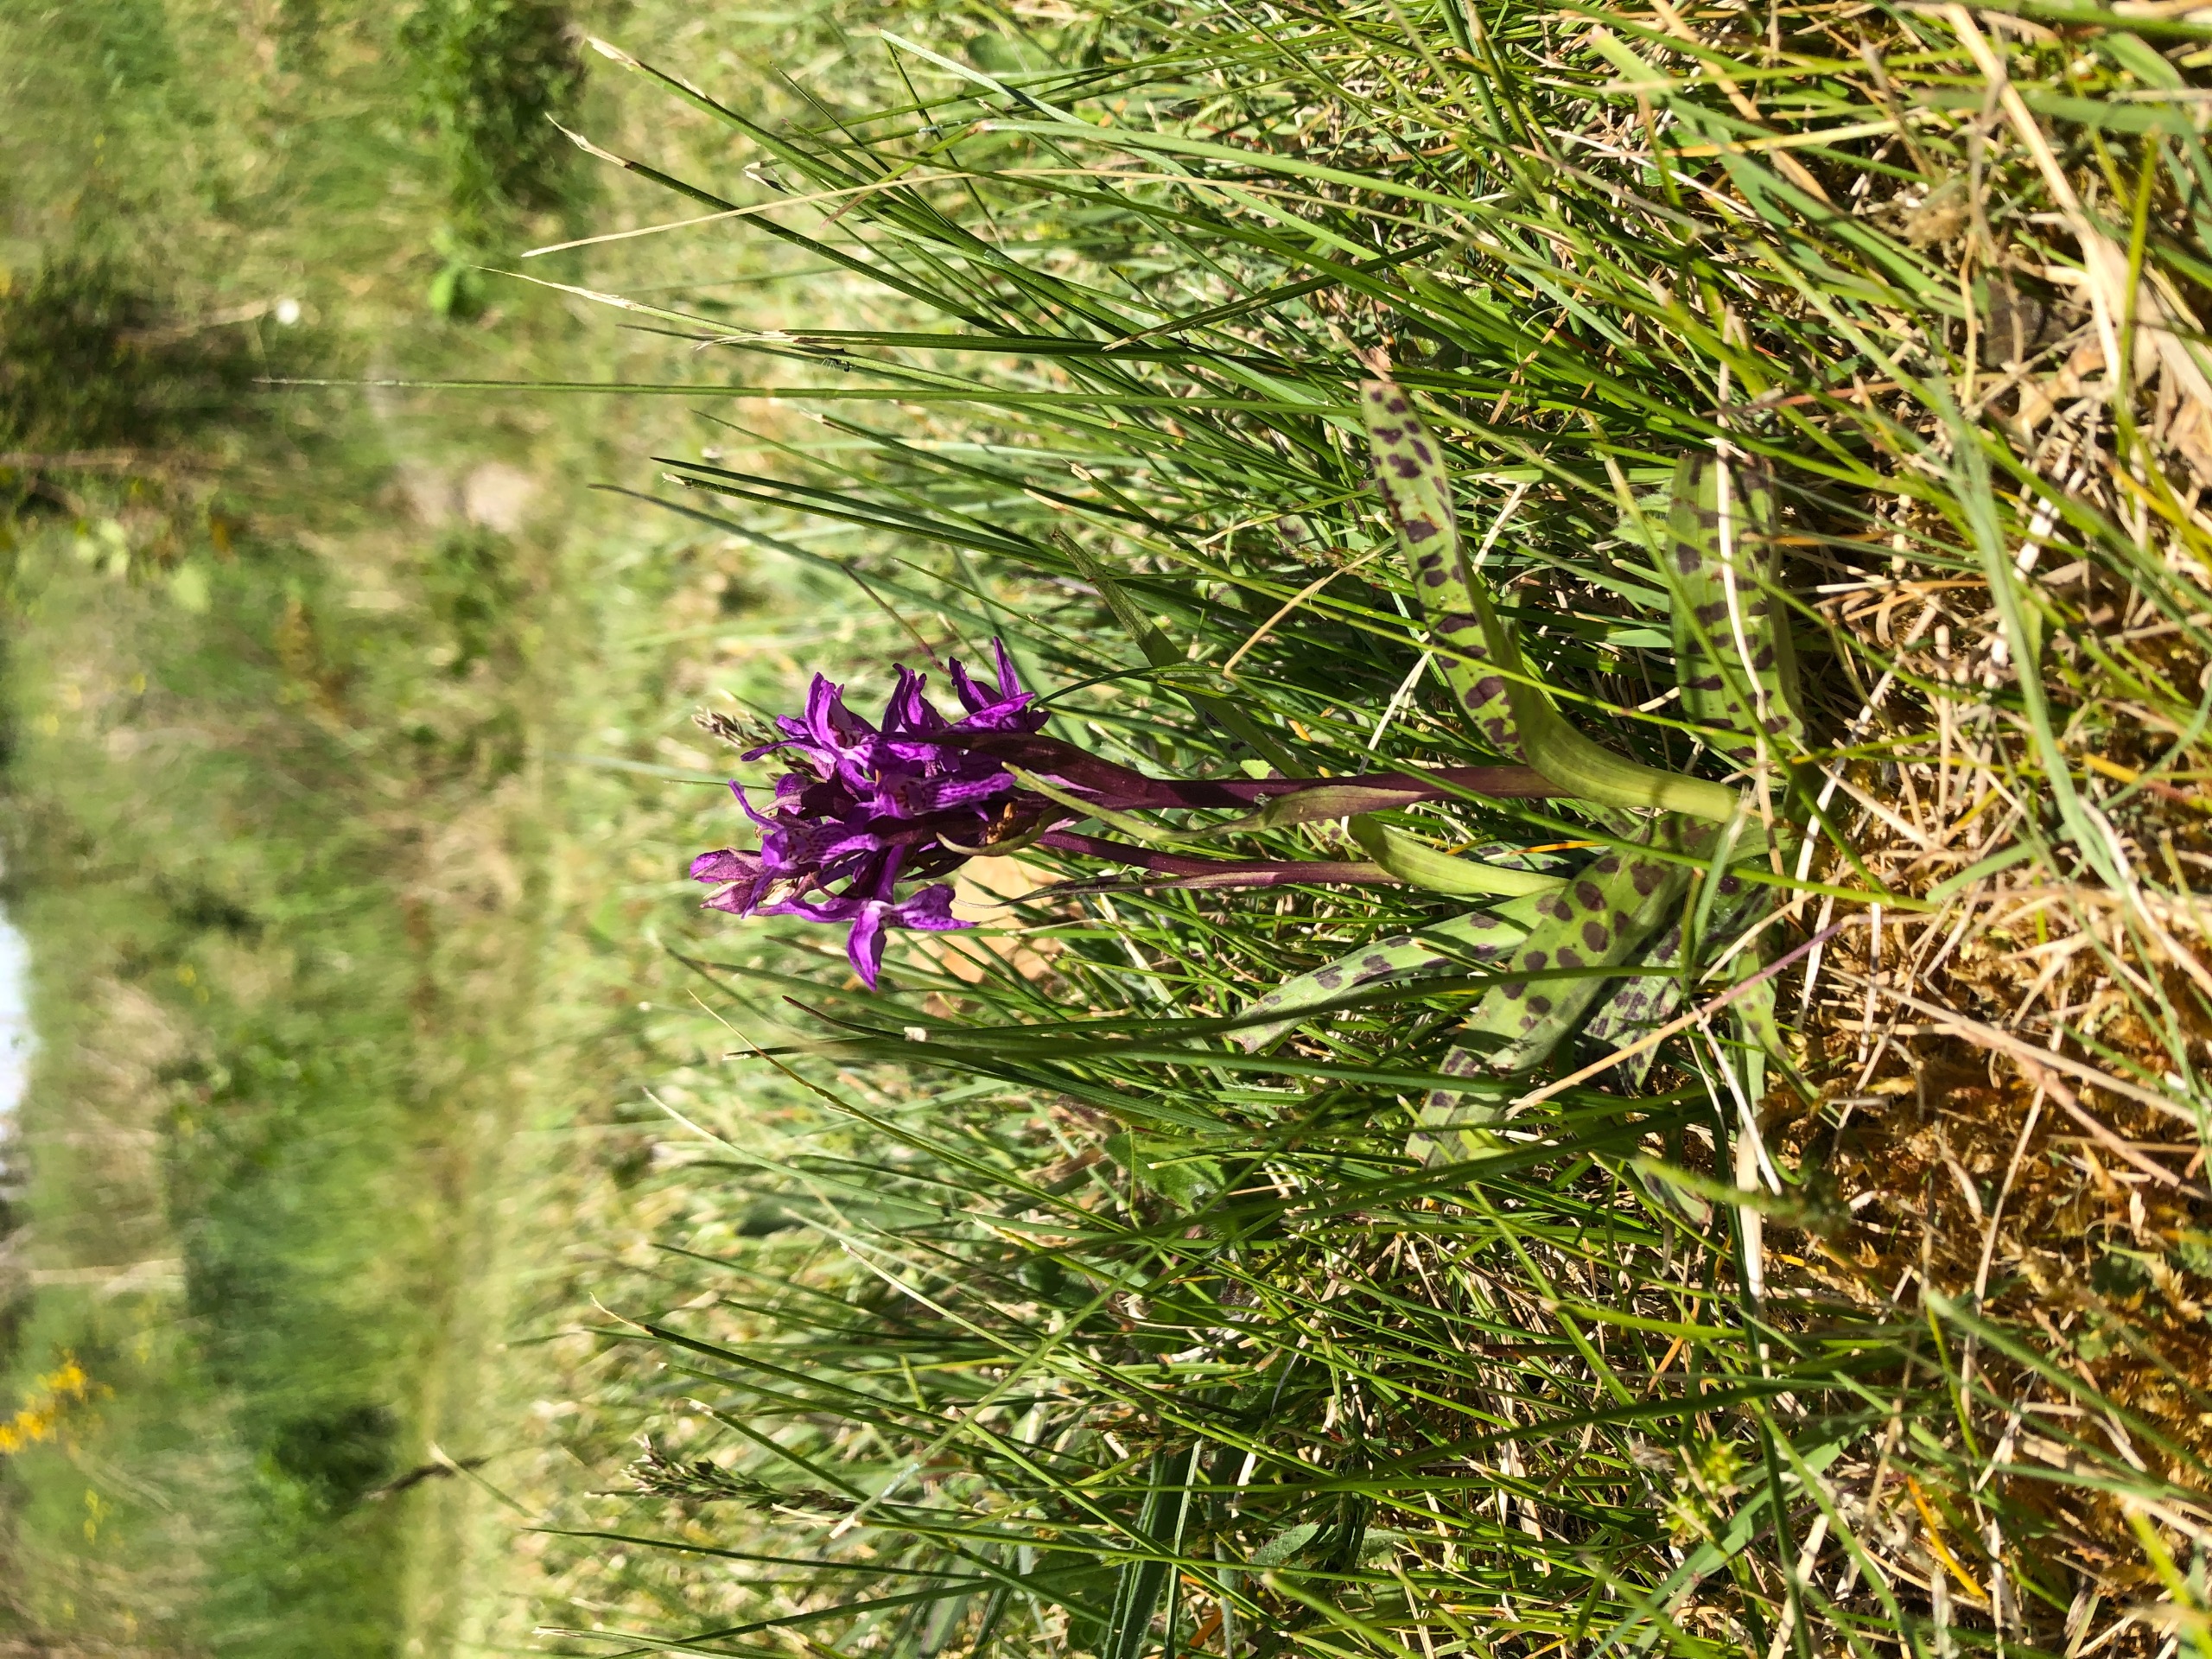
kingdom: Plantae
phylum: Tracheophyta
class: Liliopsida
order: Asparagales
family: Orchidaceae
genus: Dactylorhiza
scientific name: Dactylorhiza majalis
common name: Maj-gøgeurt
